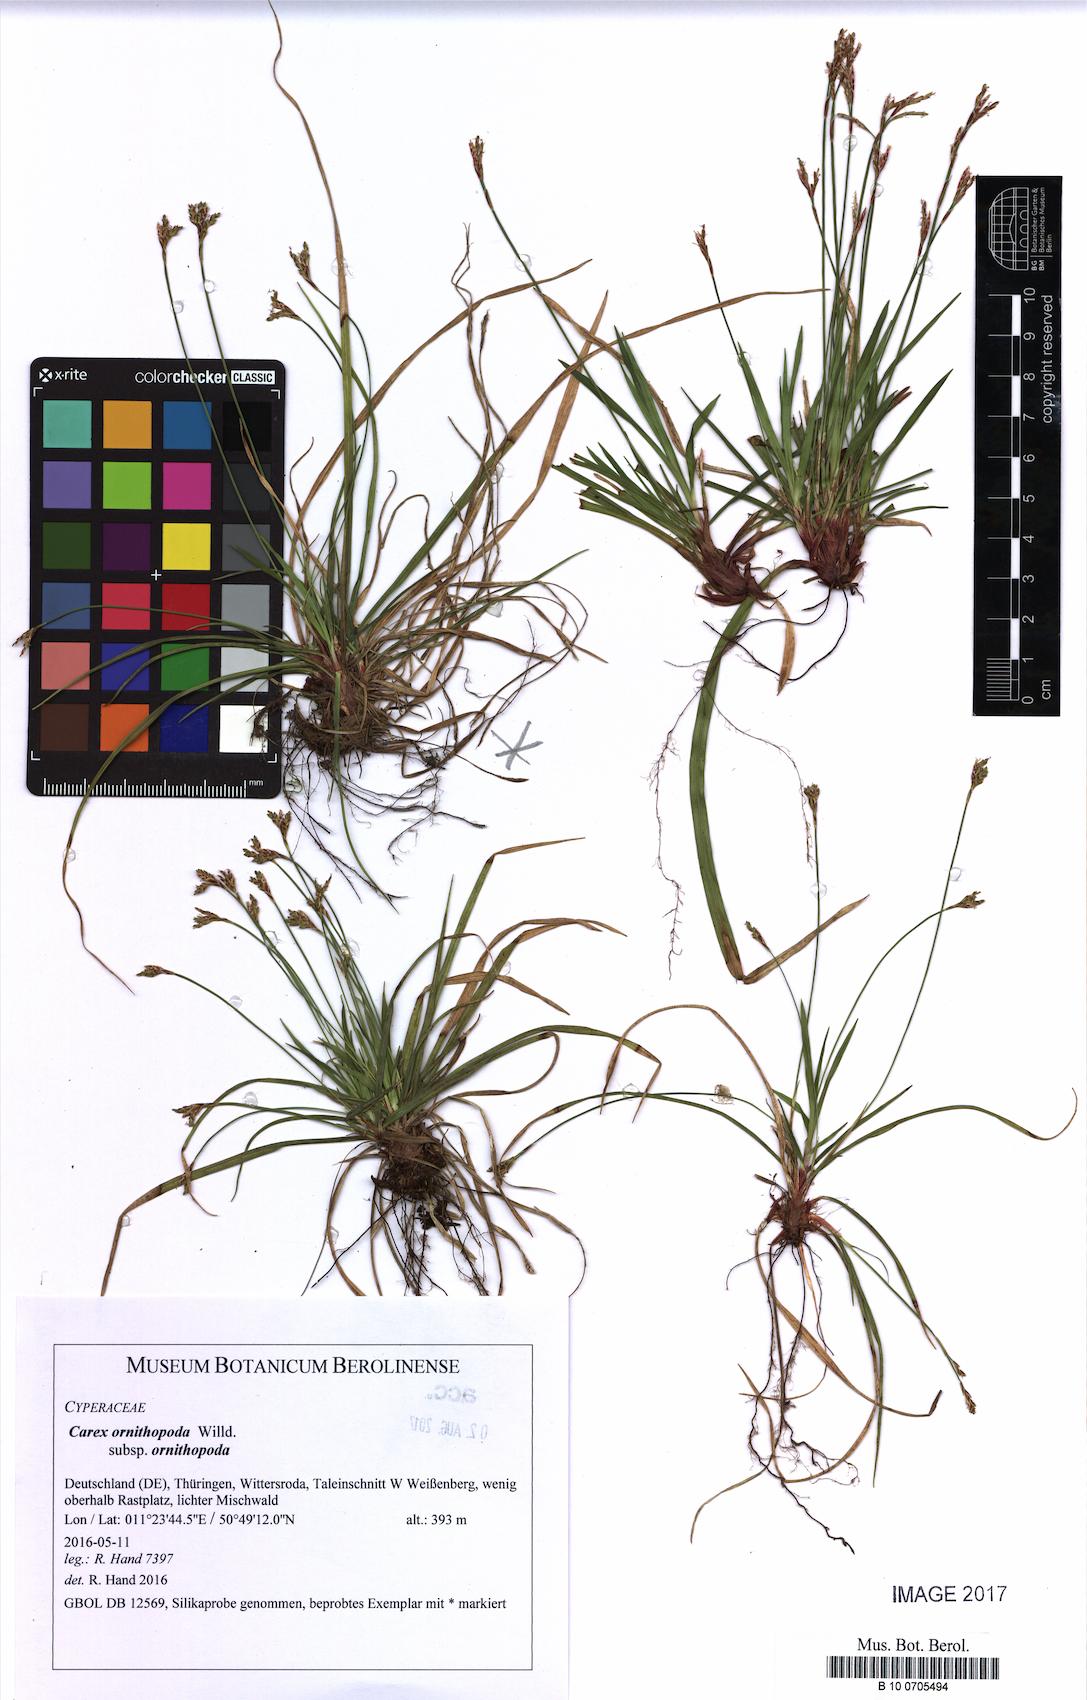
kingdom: Plantae
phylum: Tracheophyta
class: Liliopsida
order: Poales
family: Cyperaceae
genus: Carex
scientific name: Carex ornithopoda
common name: Bird's-foot sedge
